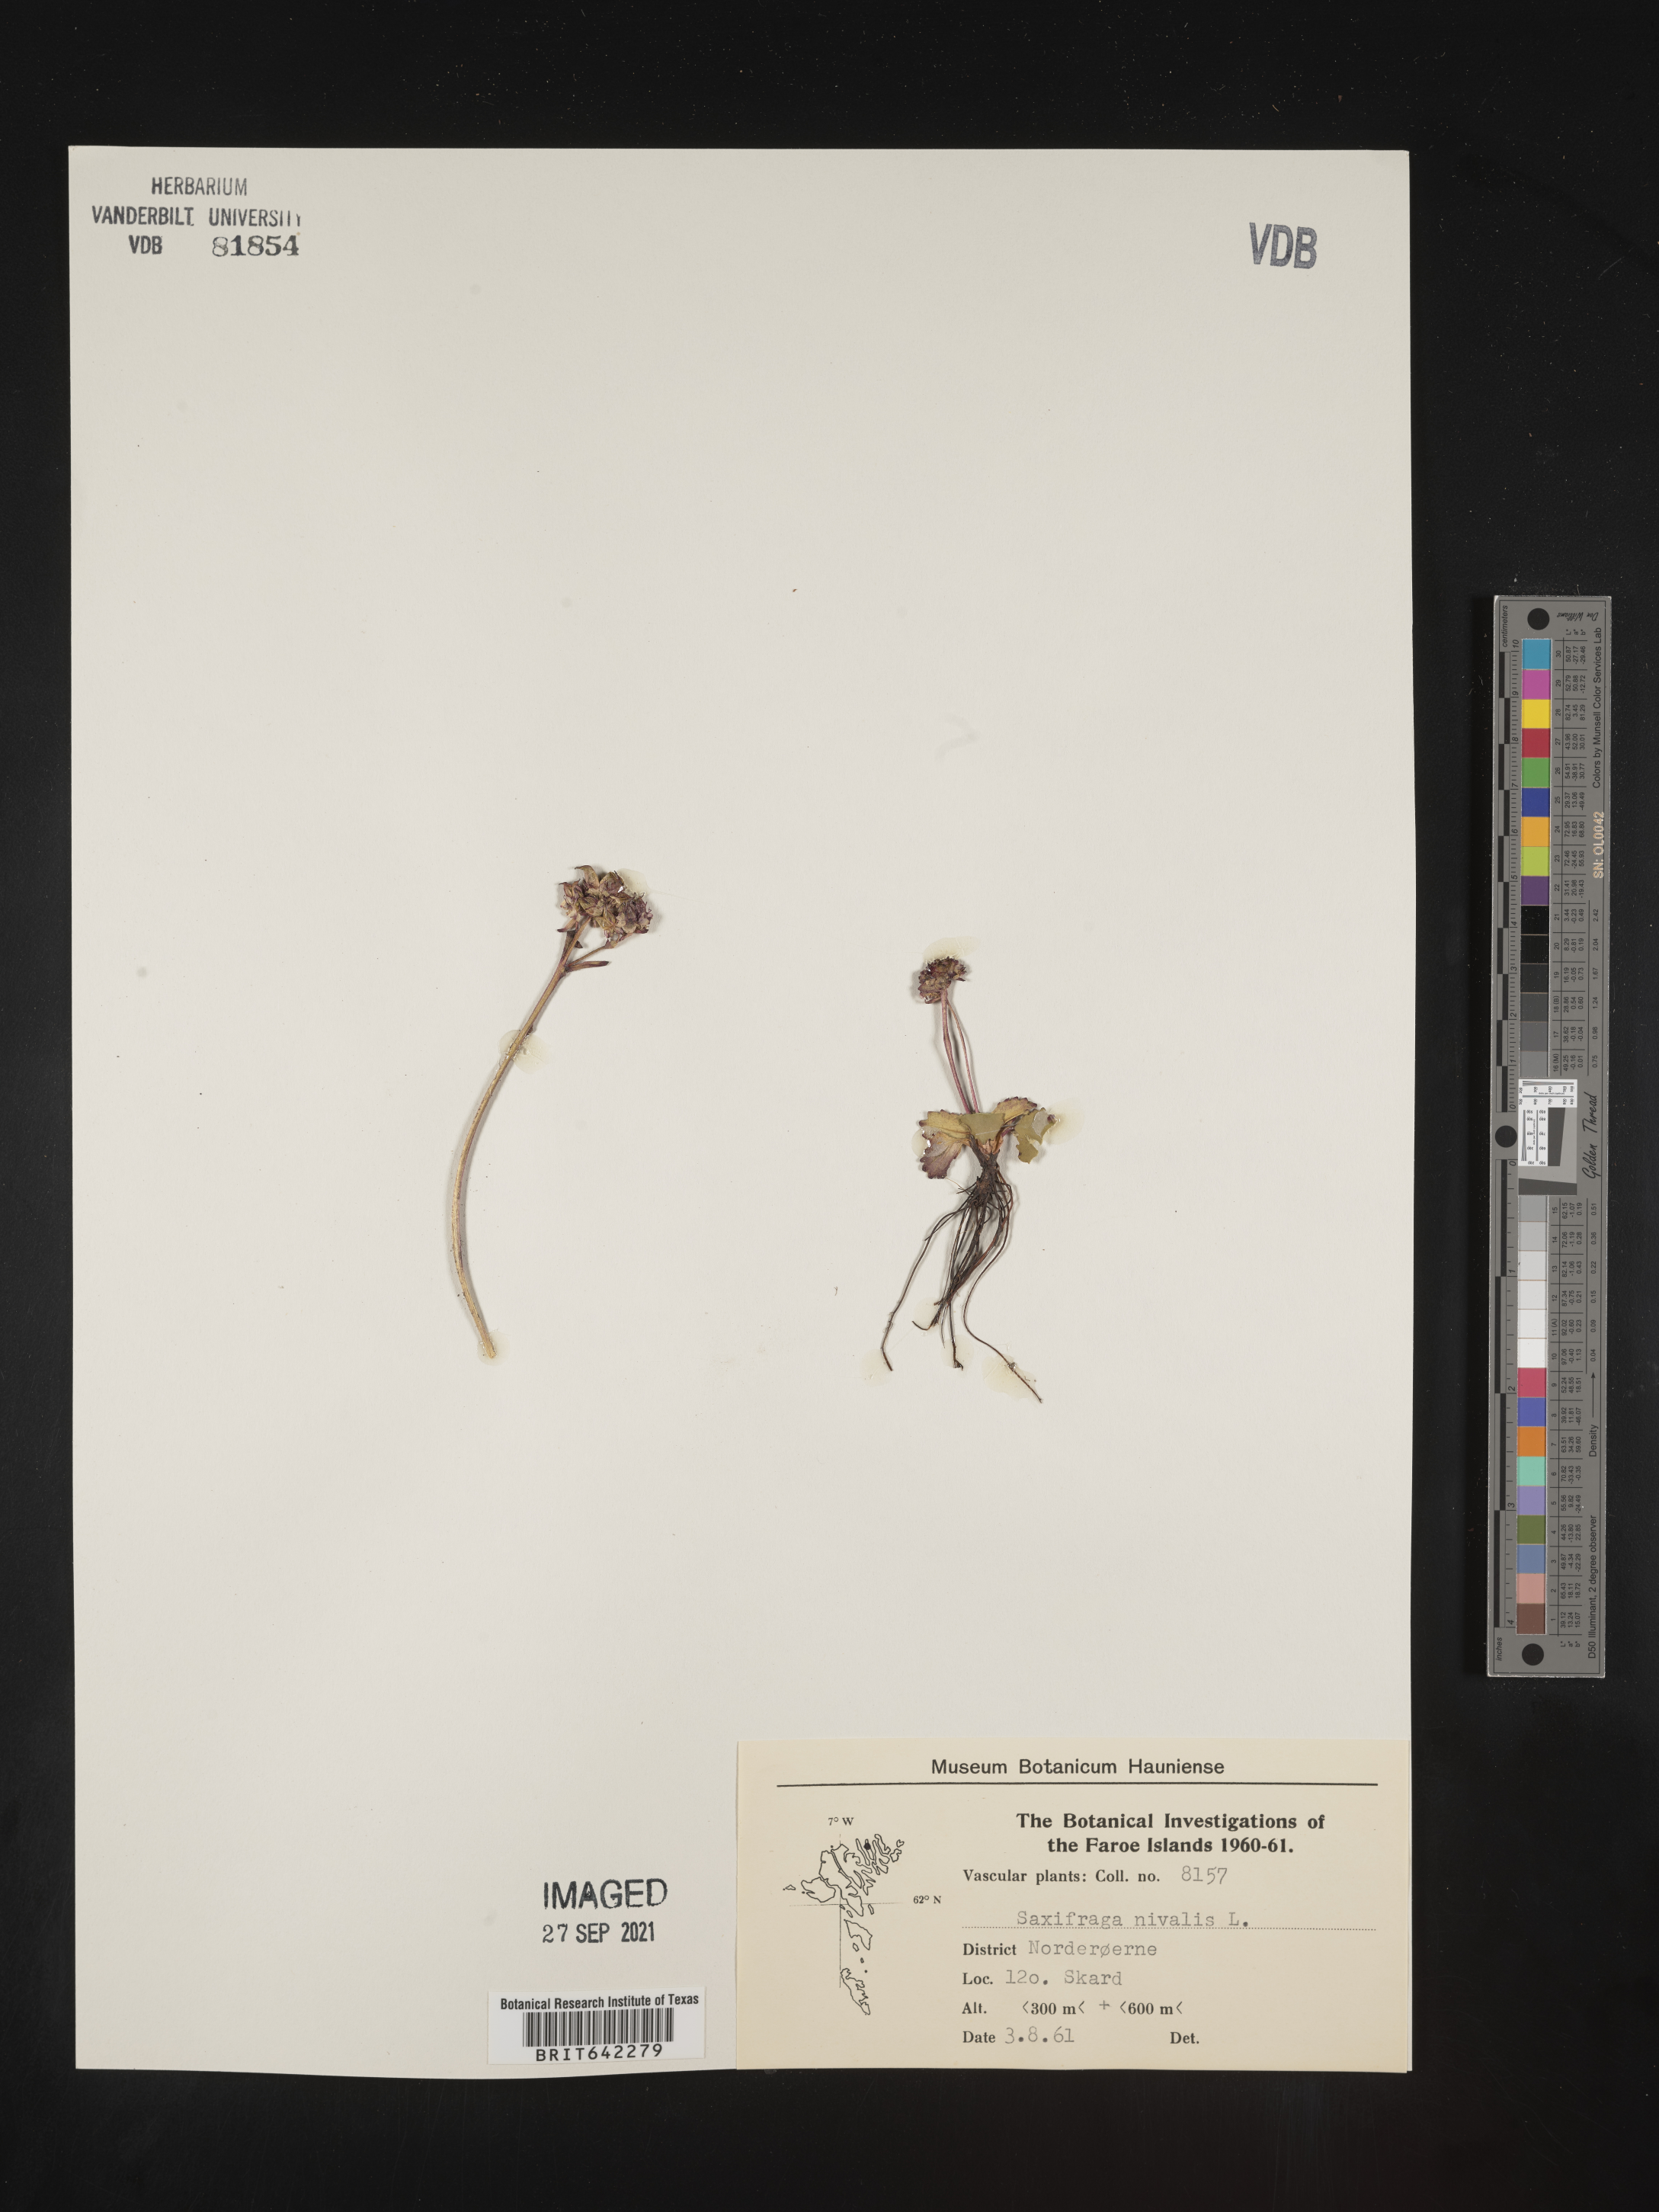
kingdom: Plantae
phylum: Tracheophyta
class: Magnoliopsida
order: Saxifragales
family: Saxifragaceae
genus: Saxifraga
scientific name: Saxifraga
